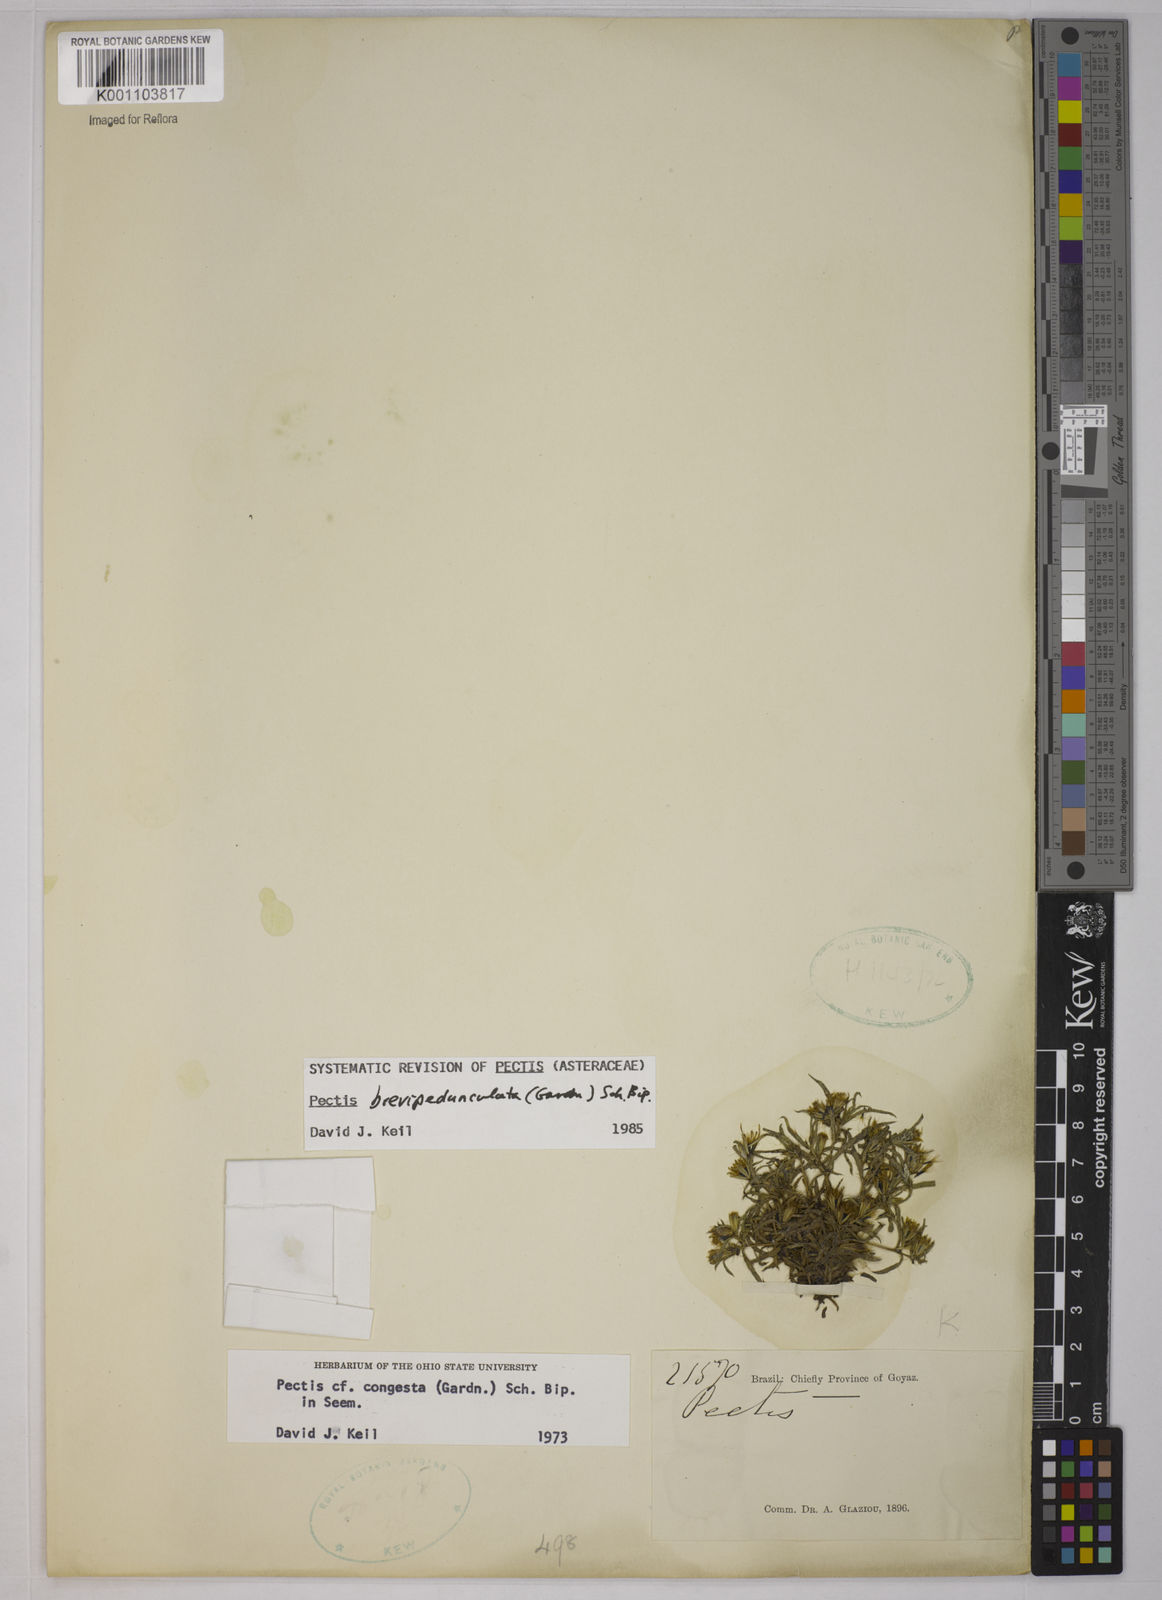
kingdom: Plantae
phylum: Tracheophyta
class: Magnoliopsida
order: Asterales
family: Asteraceae
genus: Pectis
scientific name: Pectis congesta
